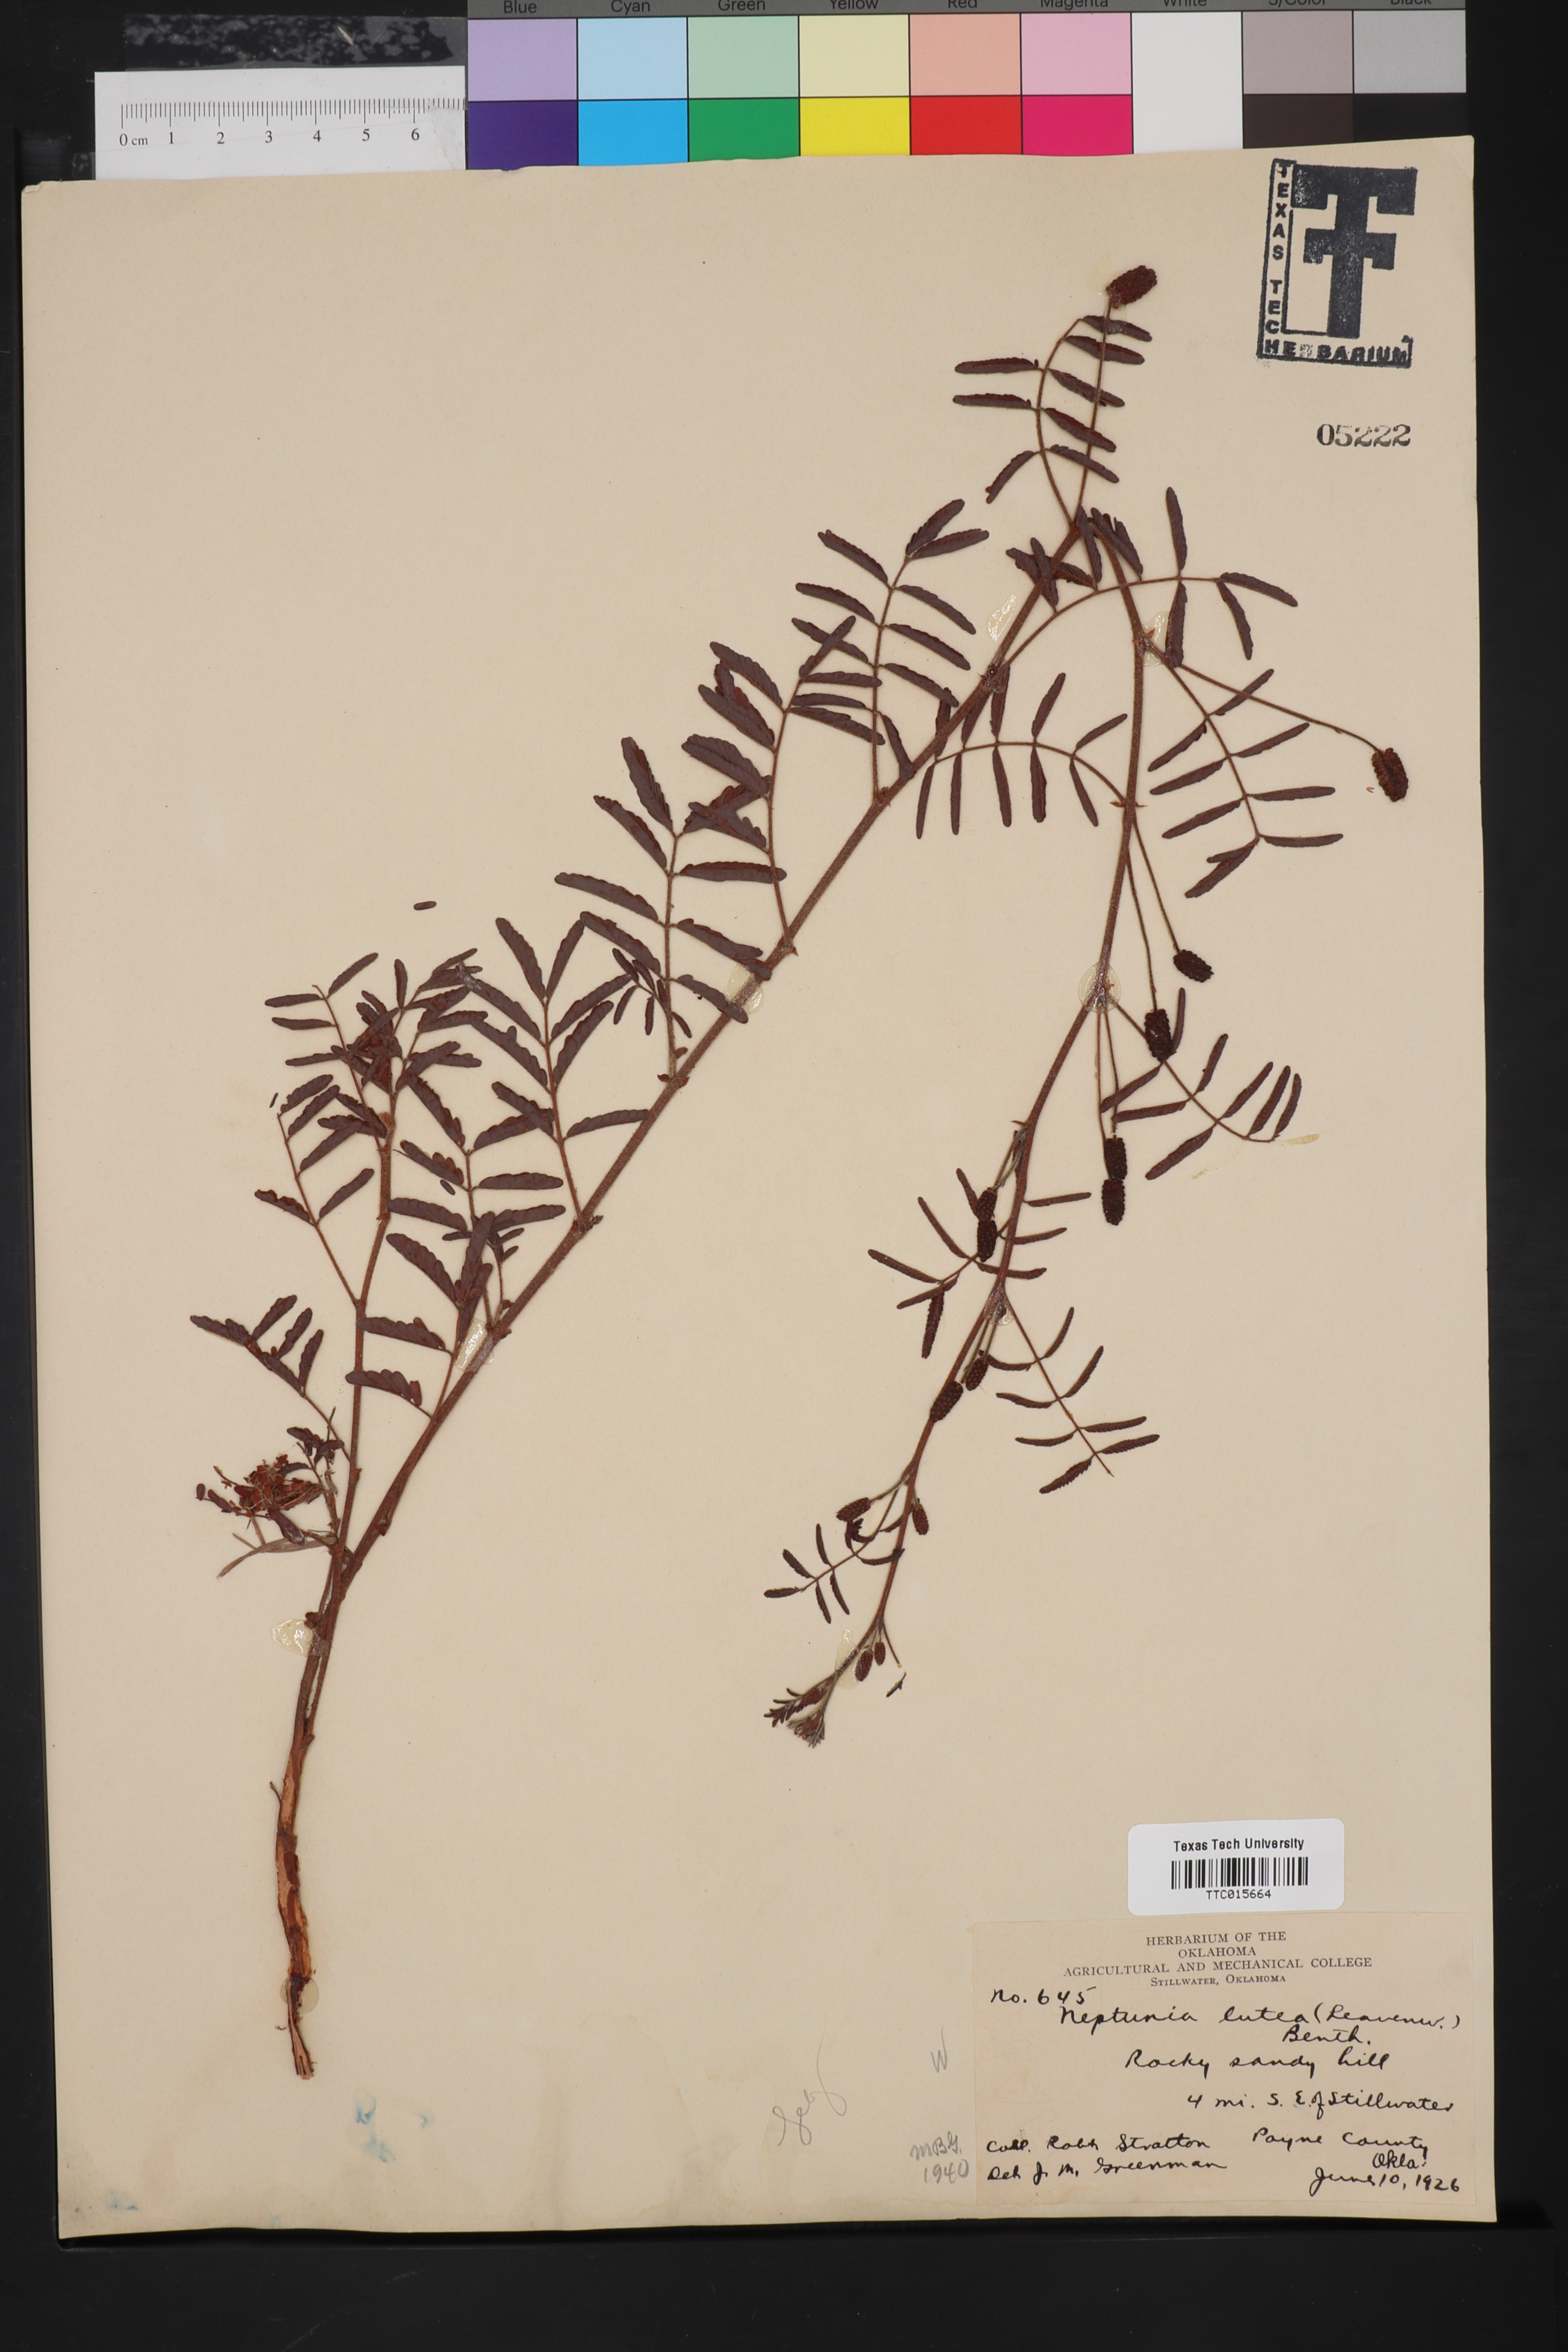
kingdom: Plantae
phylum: Tracheophyta
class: Magnoliopsida
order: Fabales
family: Fabaceae
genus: Neptunia
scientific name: Neptunia lutea
